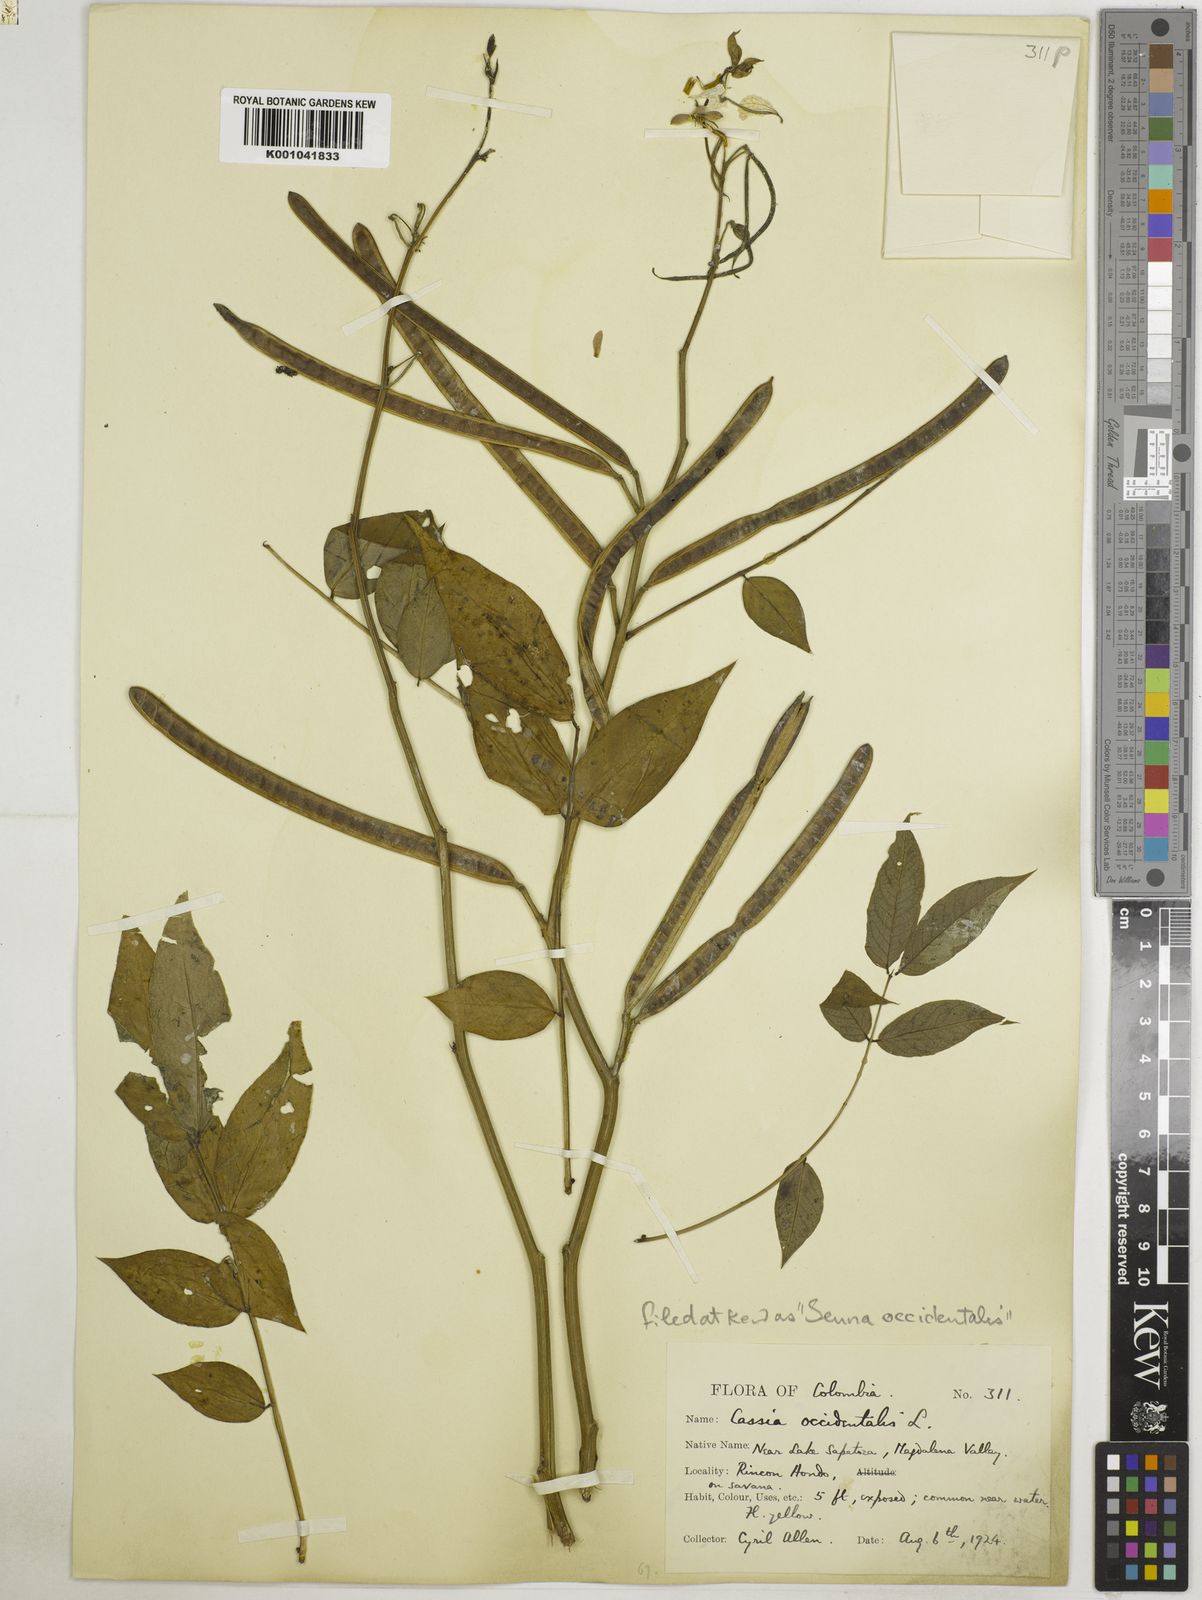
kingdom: Plantae
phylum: Tracheophyta
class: Magnoliopsida
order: Fabales
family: Fabaceae
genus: Senna
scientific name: Senna occidentalis
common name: Septicweed
